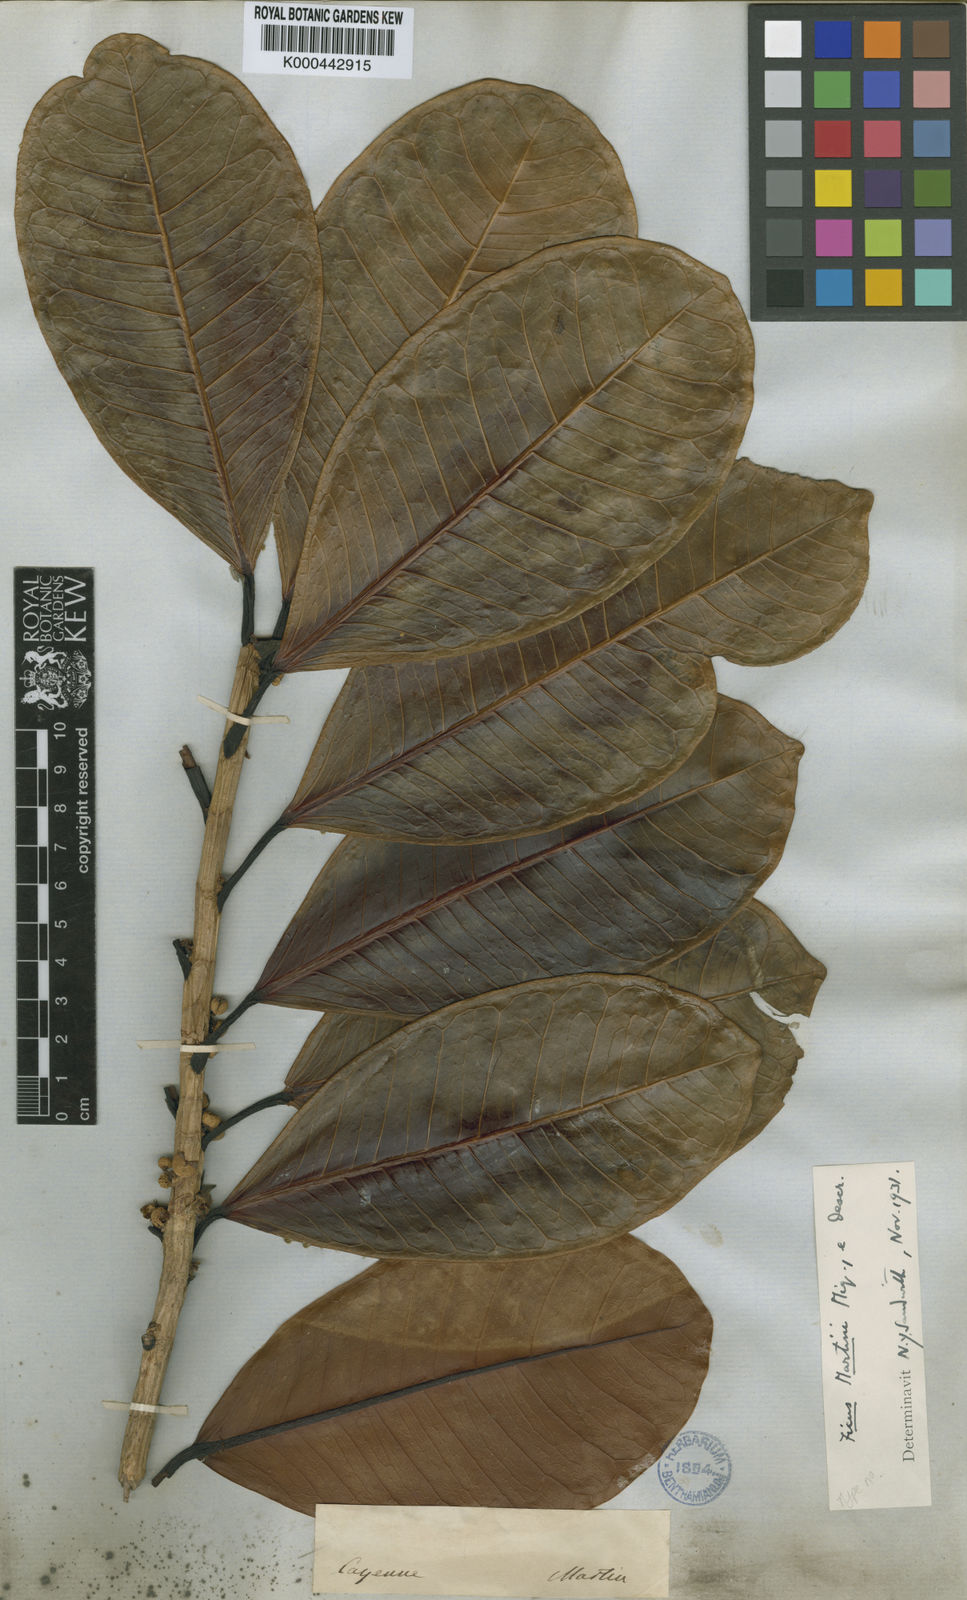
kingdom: Plantae
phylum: Tracheophyta
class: Magnoliopsida
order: Rosales
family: Moraceae
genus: Ficus
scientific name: Ficus
